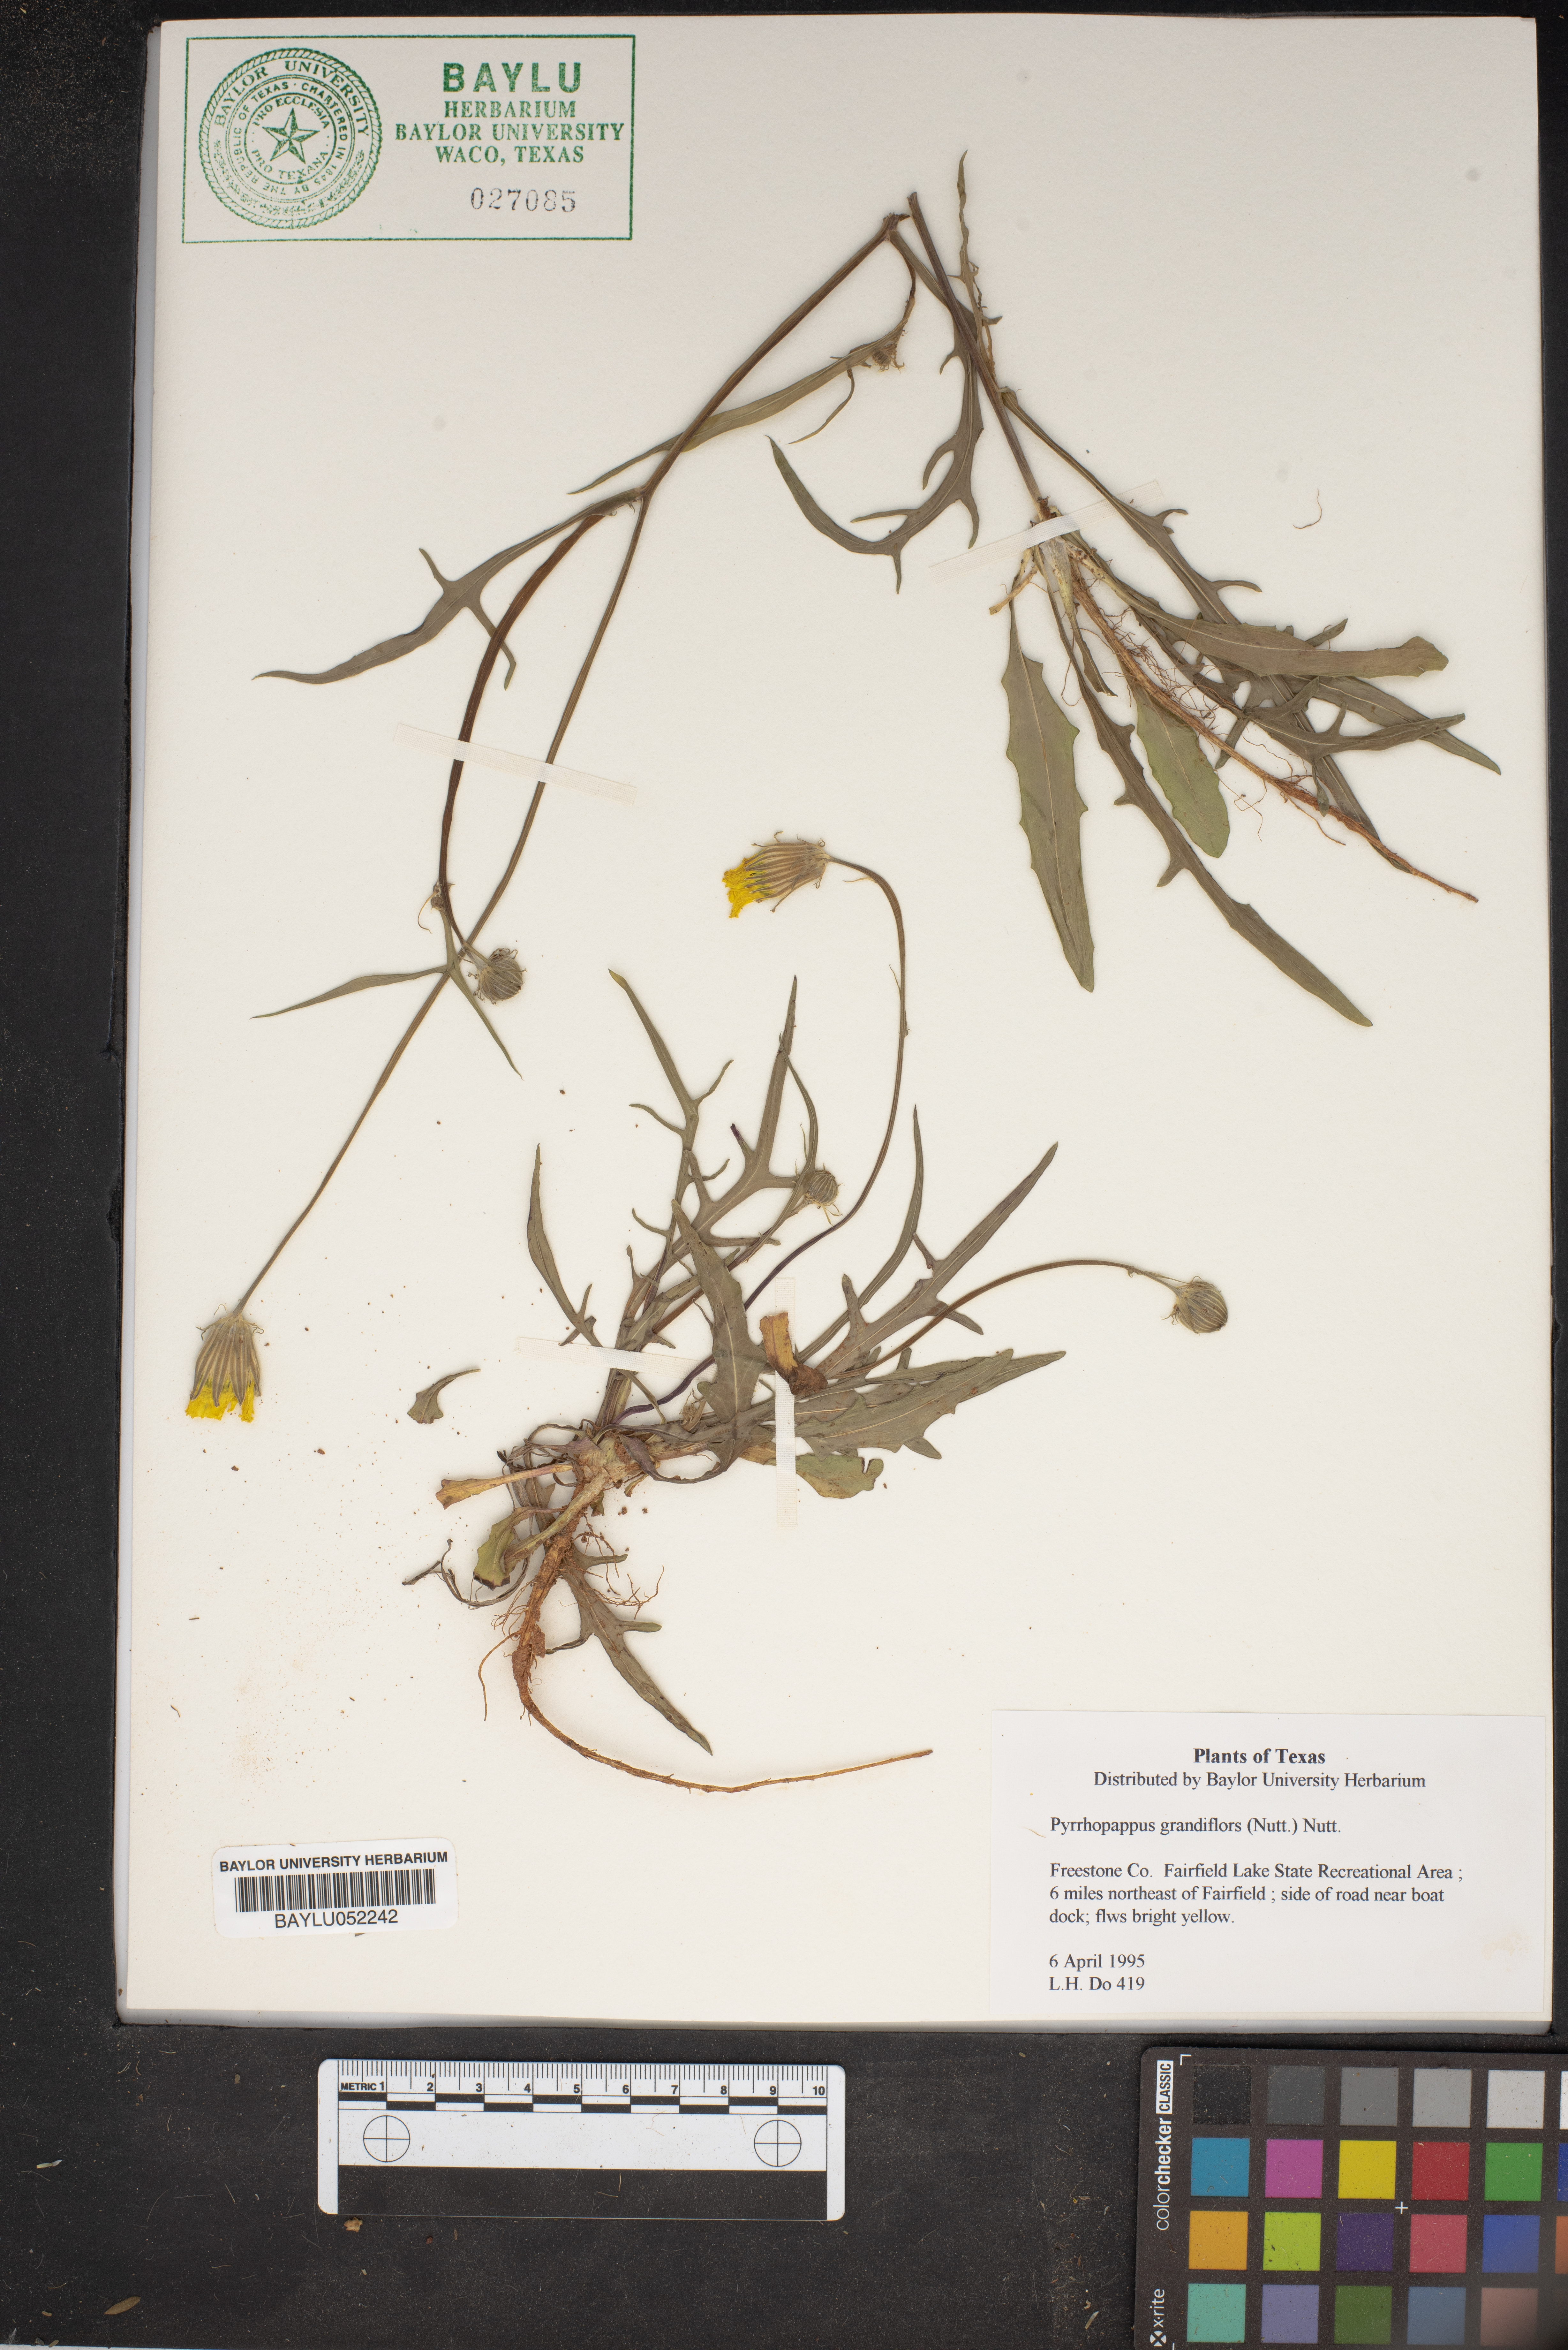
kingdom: Plantae
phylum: Tracheophyta
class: Magnoliopsida
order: Asterales
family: Asteraceae
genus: Pyrrhopappus
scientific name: Pyrrhopappus grandiflorus
